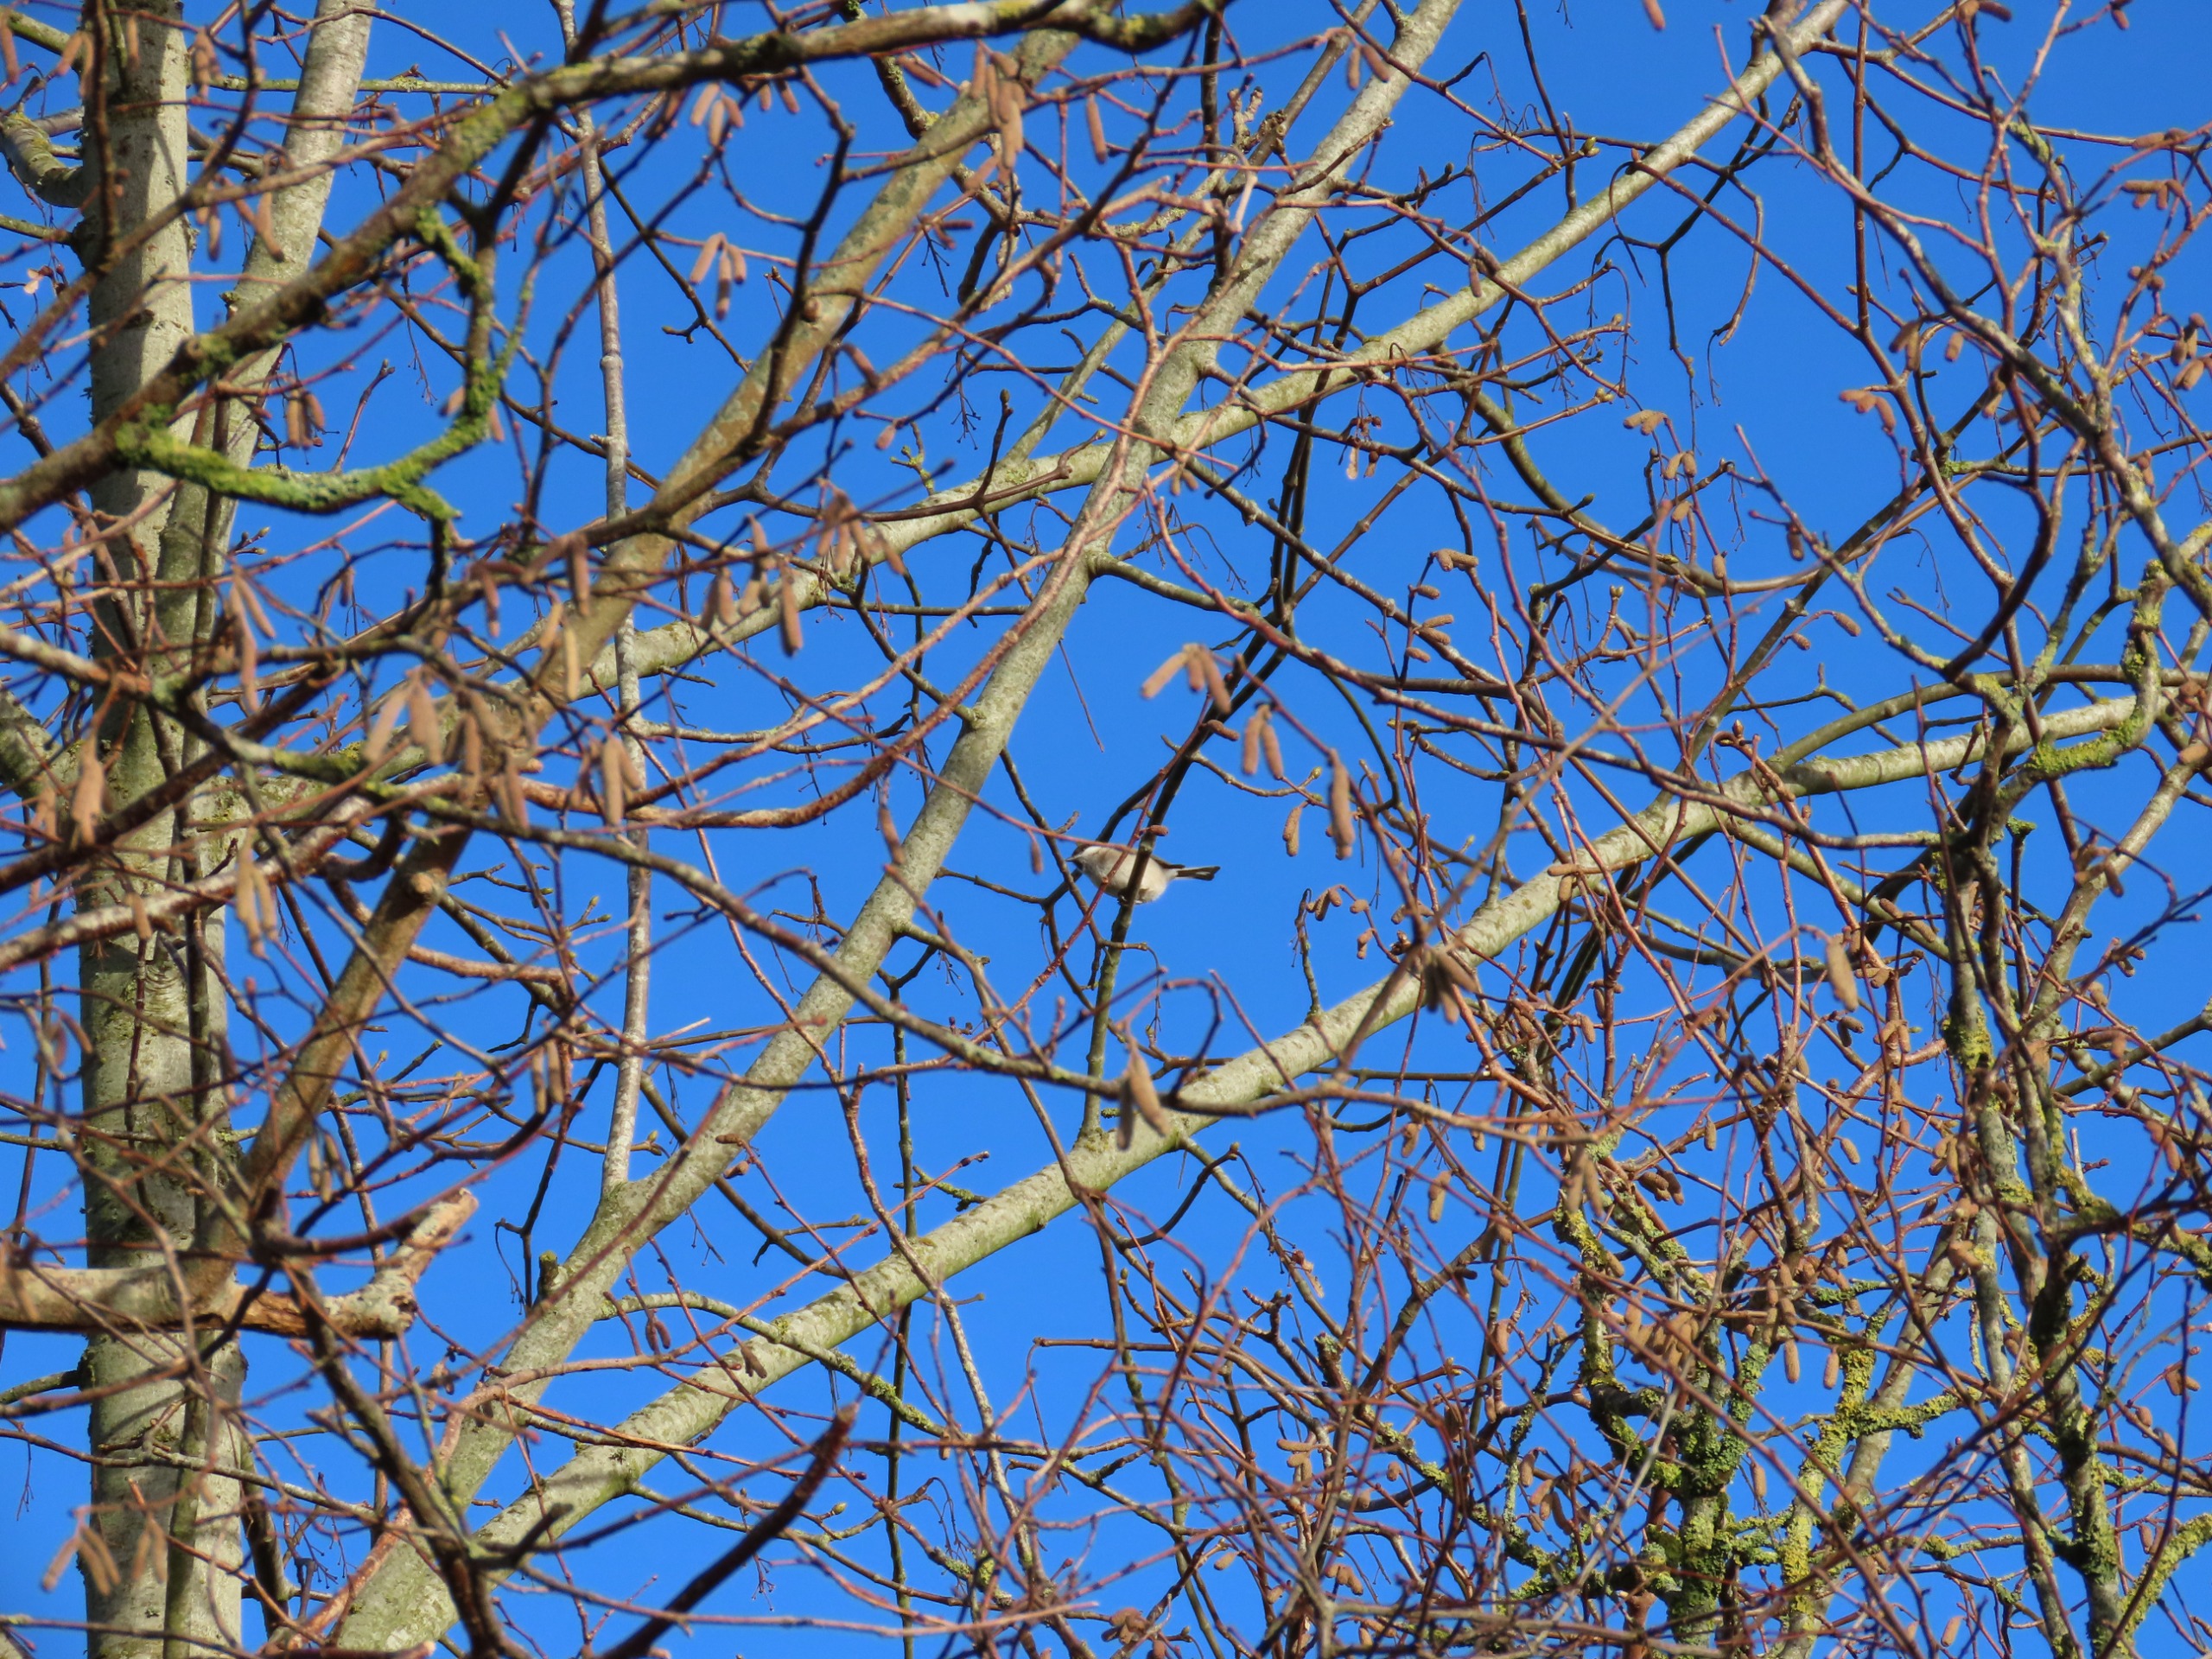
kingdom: Animalia
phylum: Chordata
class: Aves
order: Passeriformes
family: Paridae
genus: Poecile
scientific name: Poecile palustris
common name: Sumpmejse
